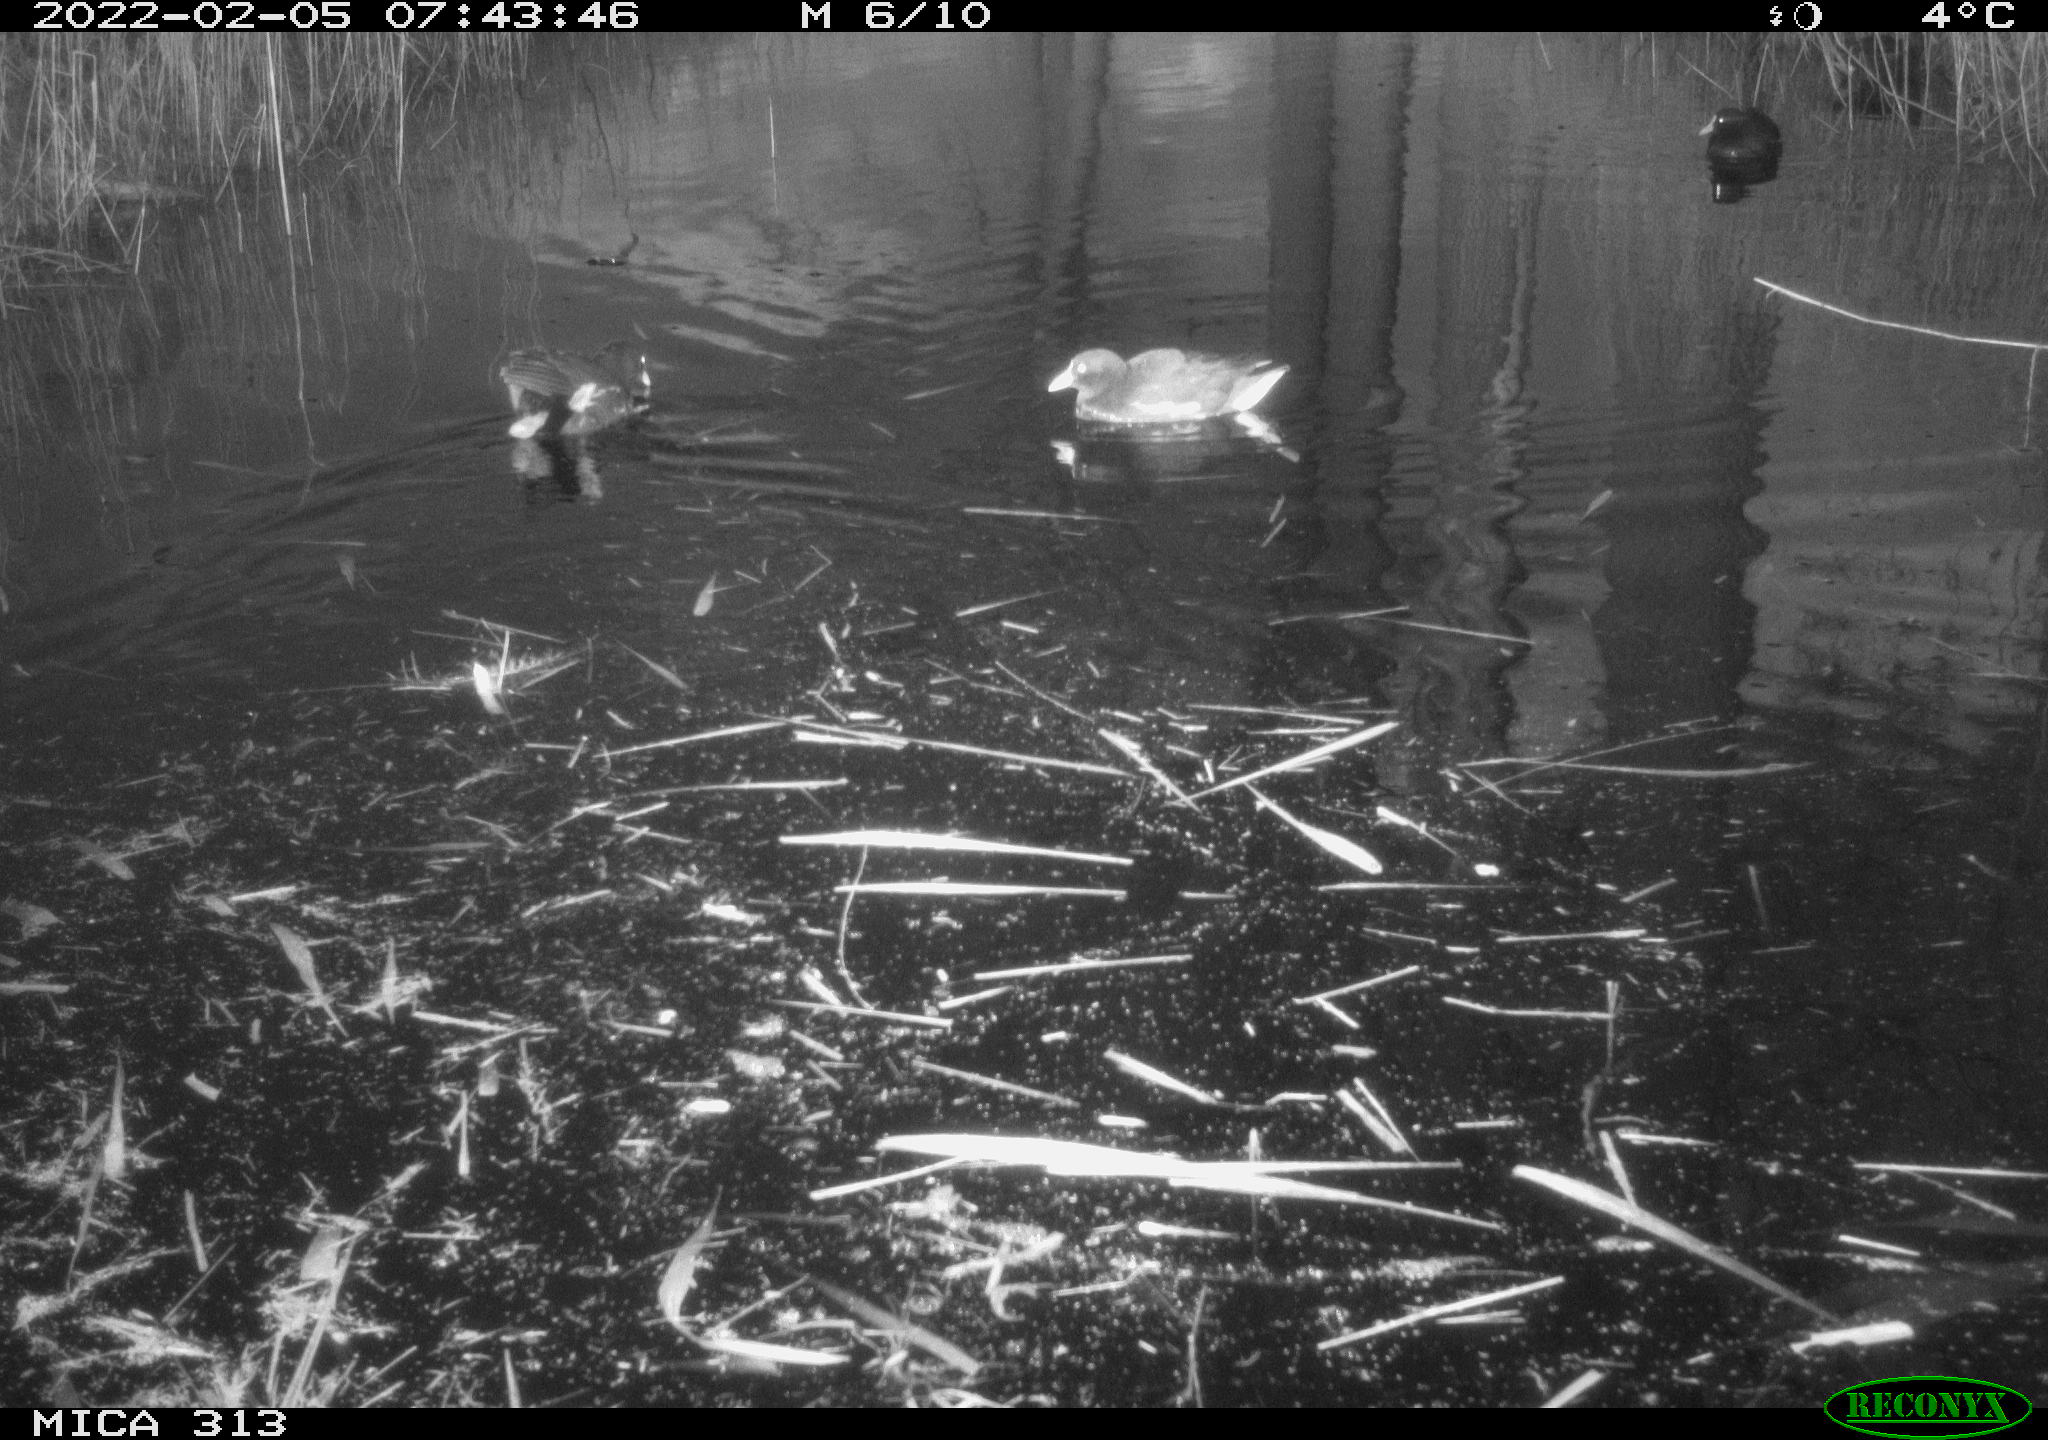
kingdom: Animalia
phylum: Chordata
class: Aves
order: Gruiformes
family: Rallidae
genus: Gallinula
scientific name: Gallinula chloropus
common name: Common moorhen
